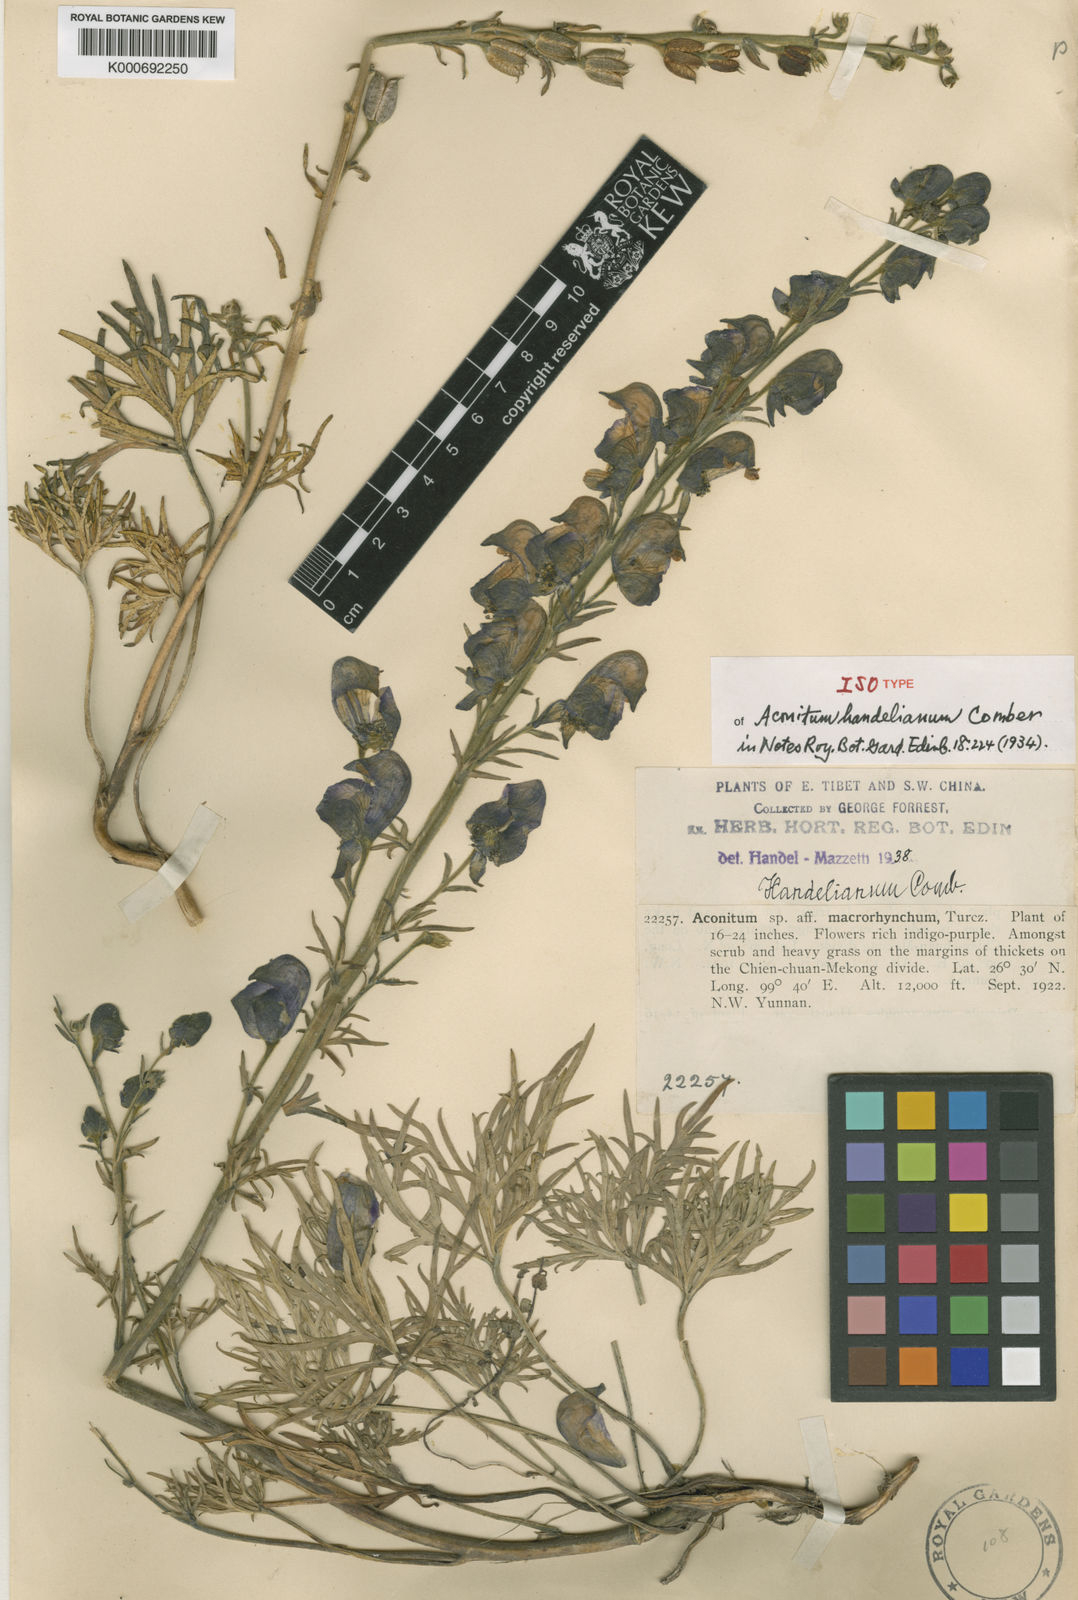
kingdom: Plantae
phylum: Tracheophyta
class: Magnoliopsida
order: Ranunculales
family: Ranunculaceae
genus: Aconitum
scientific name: Aconitum pulchellum
